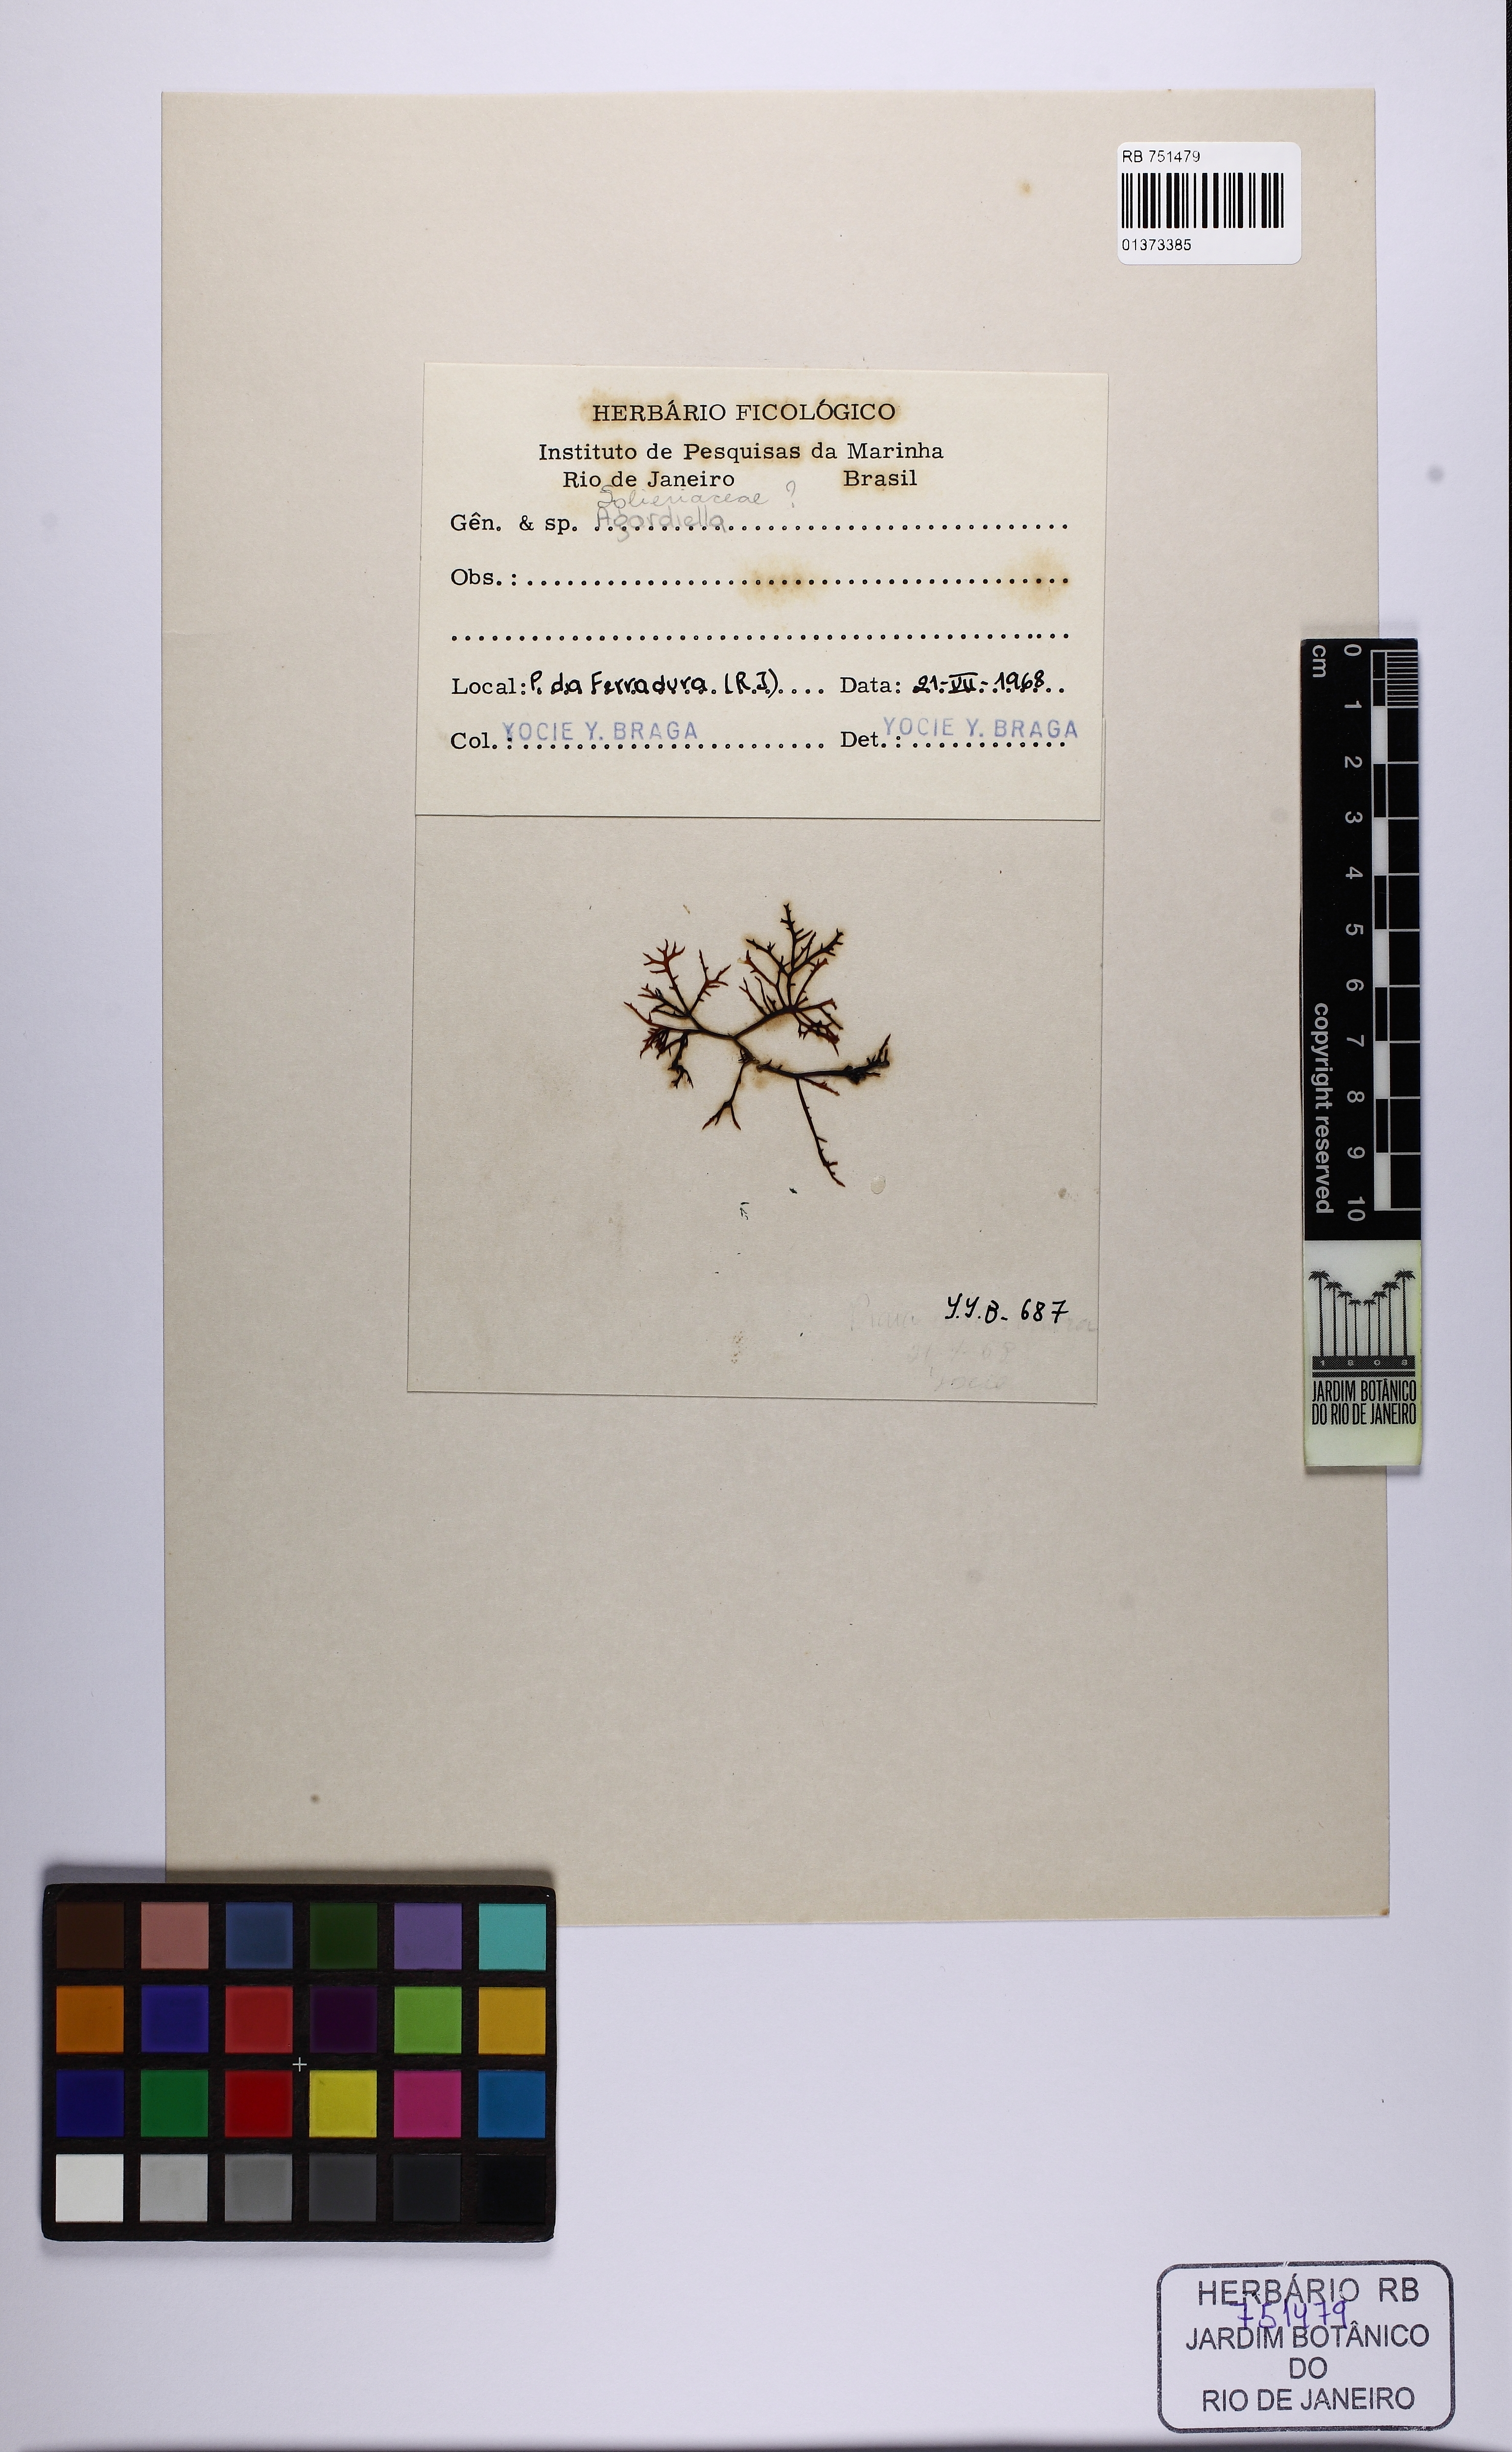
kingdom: Plantae
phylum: Rhodophyta
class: Florideophyceae
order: Gigartinales
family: Solieriaceae
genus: Agardhiella
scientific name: Agardhiella
